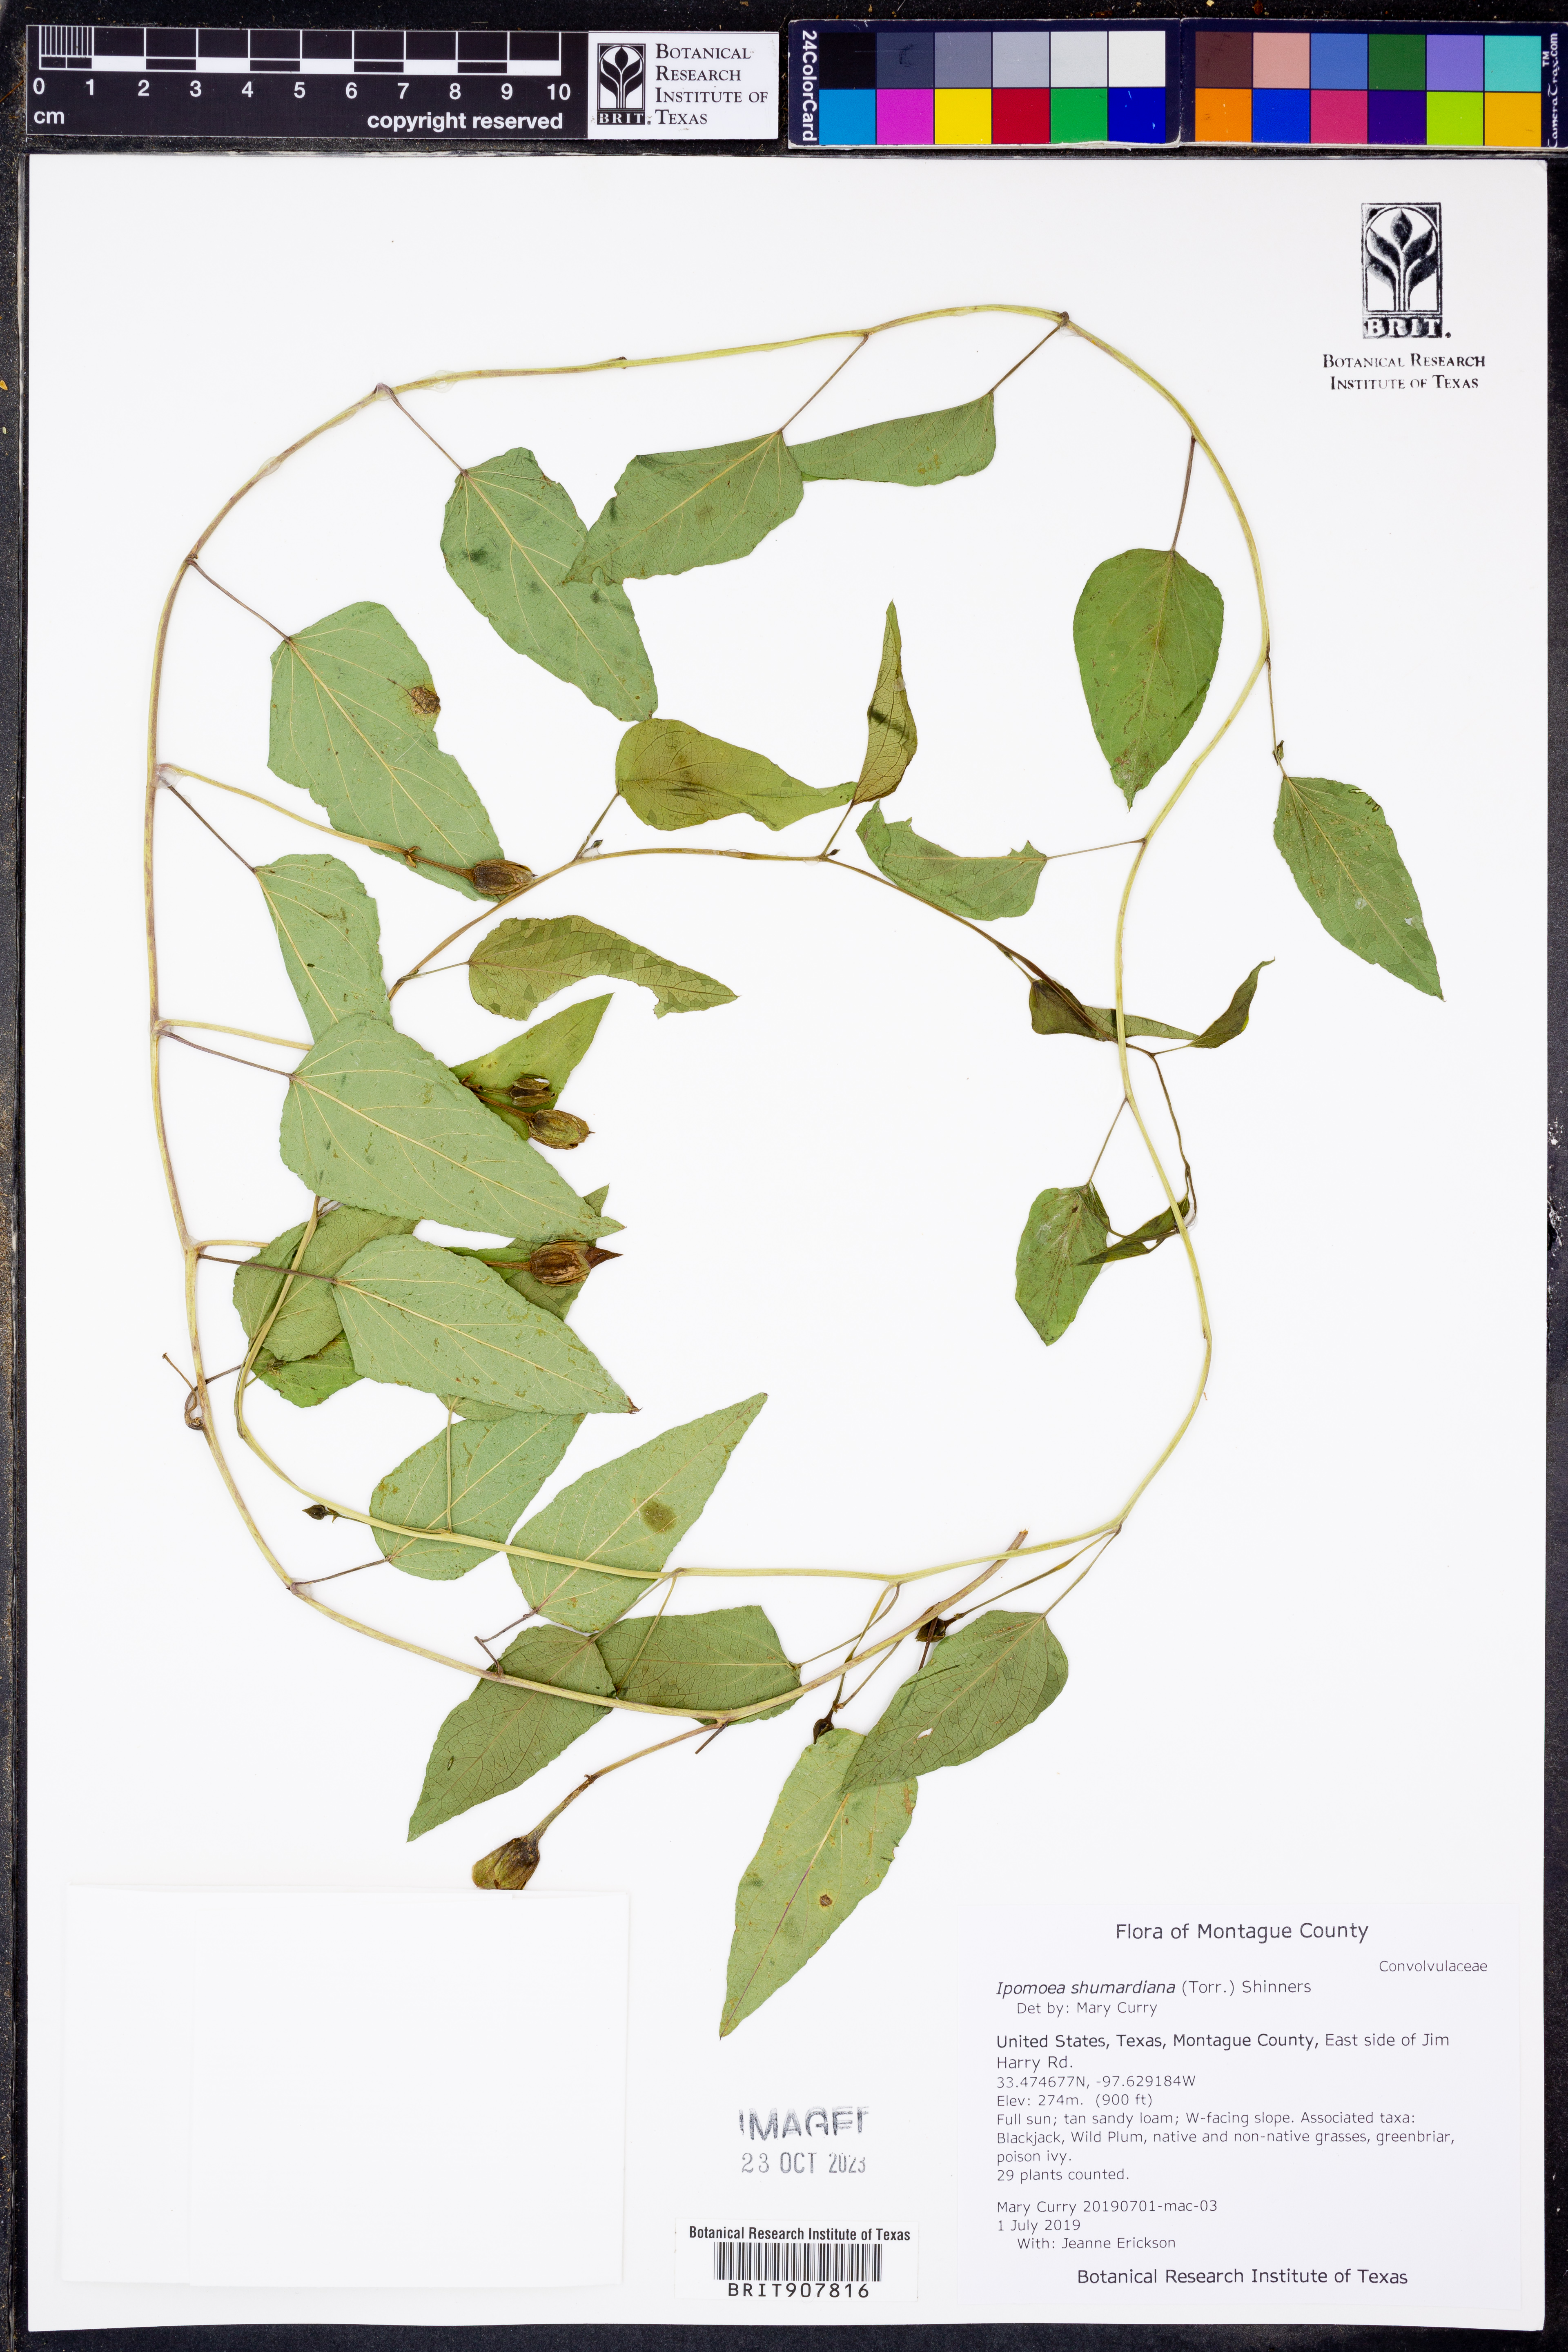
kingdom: Plantae
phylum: Tracheophyta
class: Magnoliopsida
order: Solanales
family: Convolvulaceae
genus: Ipomoea
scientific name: Ipomoea shumardiana
